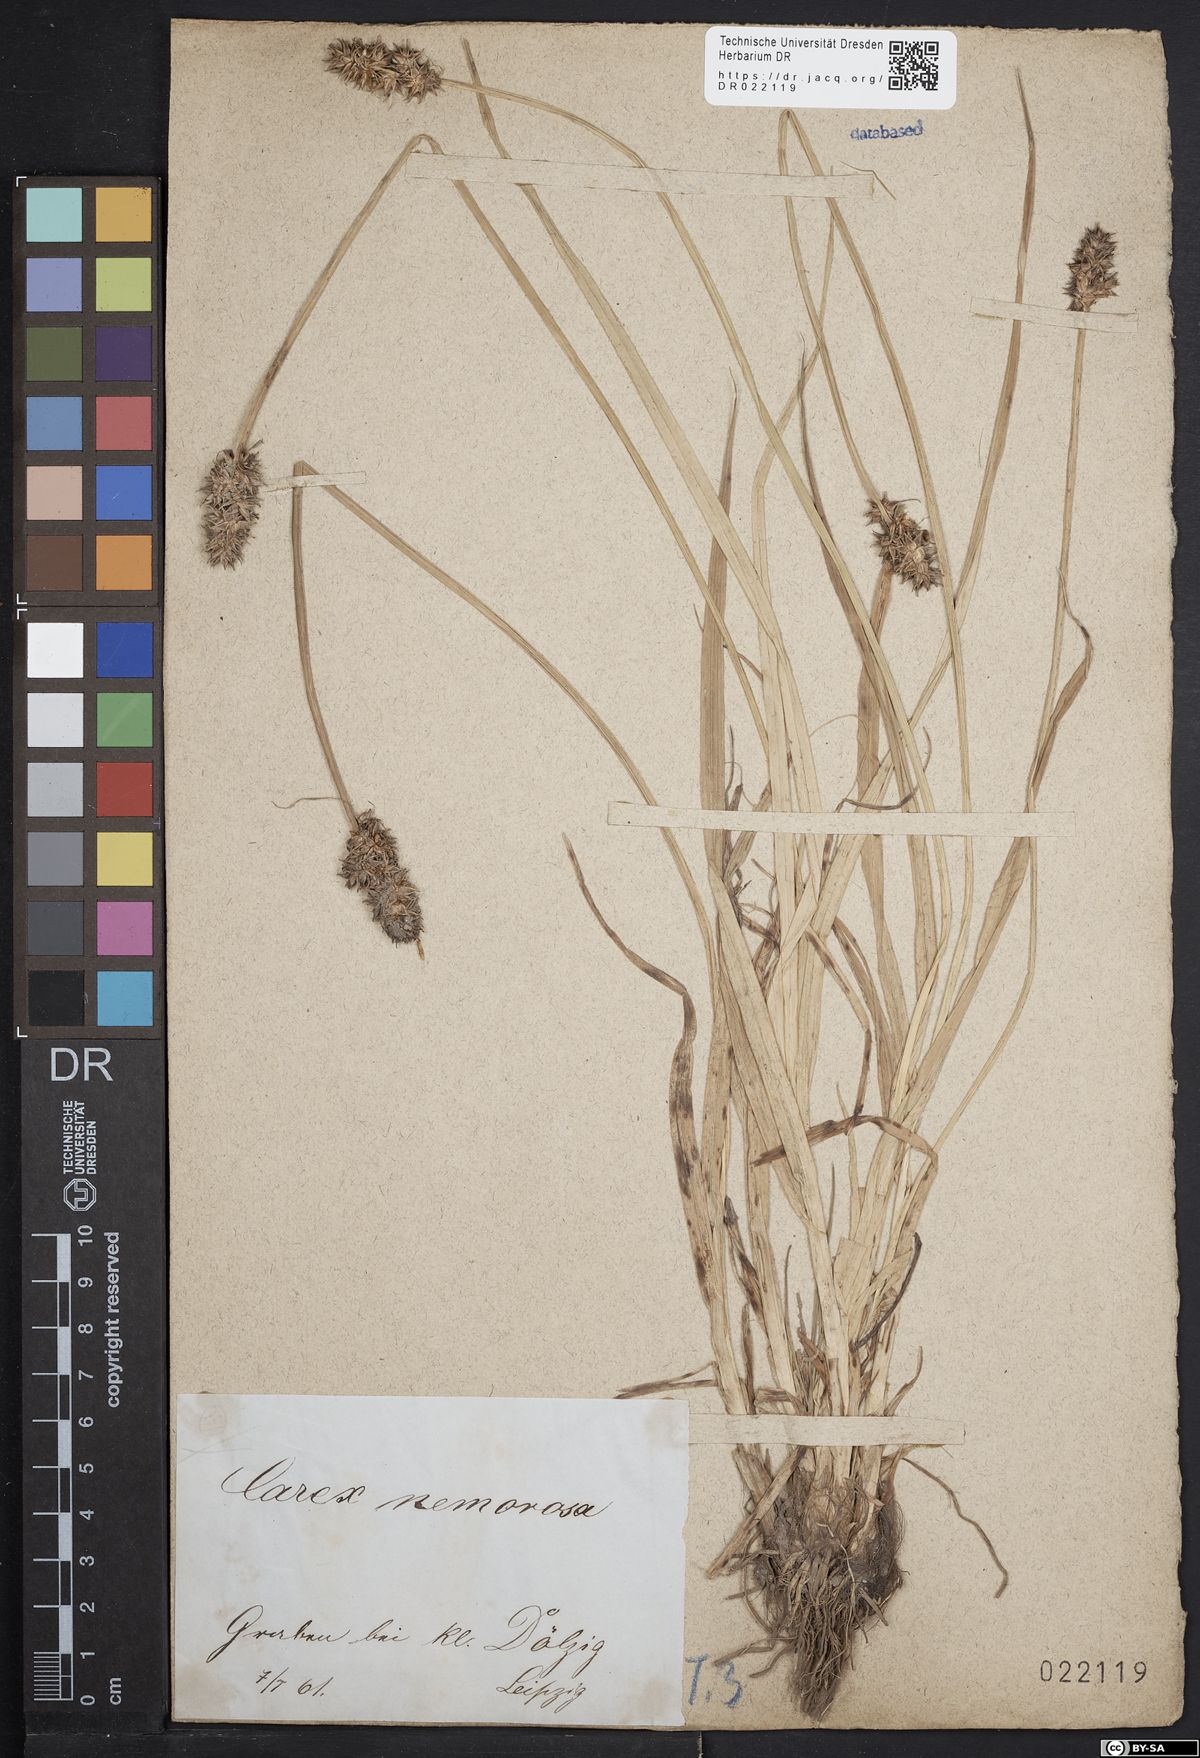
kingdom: Plantae
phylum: Tracheophyta
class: Liliopsida
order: Poales
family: Cyperaceae
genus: Carex
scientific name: Carex otrubae
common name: False fox-sedge
